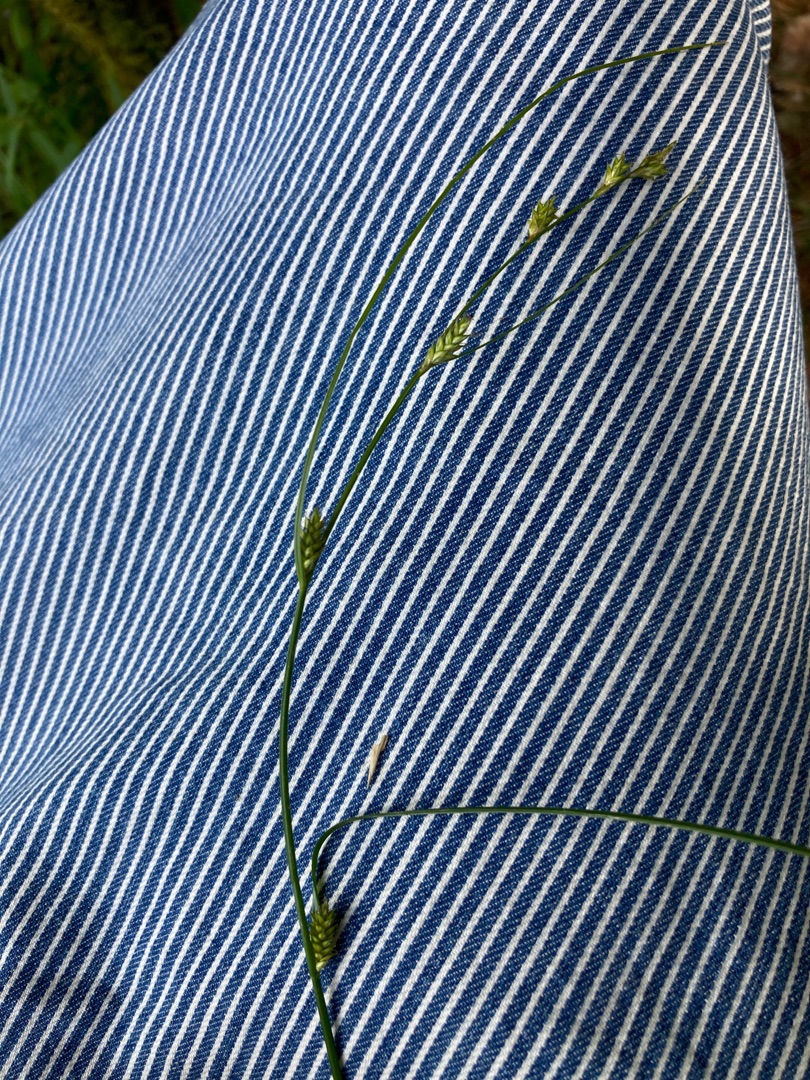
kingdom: Plantae
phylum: Tracheophyta
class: Liliopsida
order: Poales
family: Cyperaceae
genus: Carex
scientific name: Carex remota
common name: Akselblomstret star
